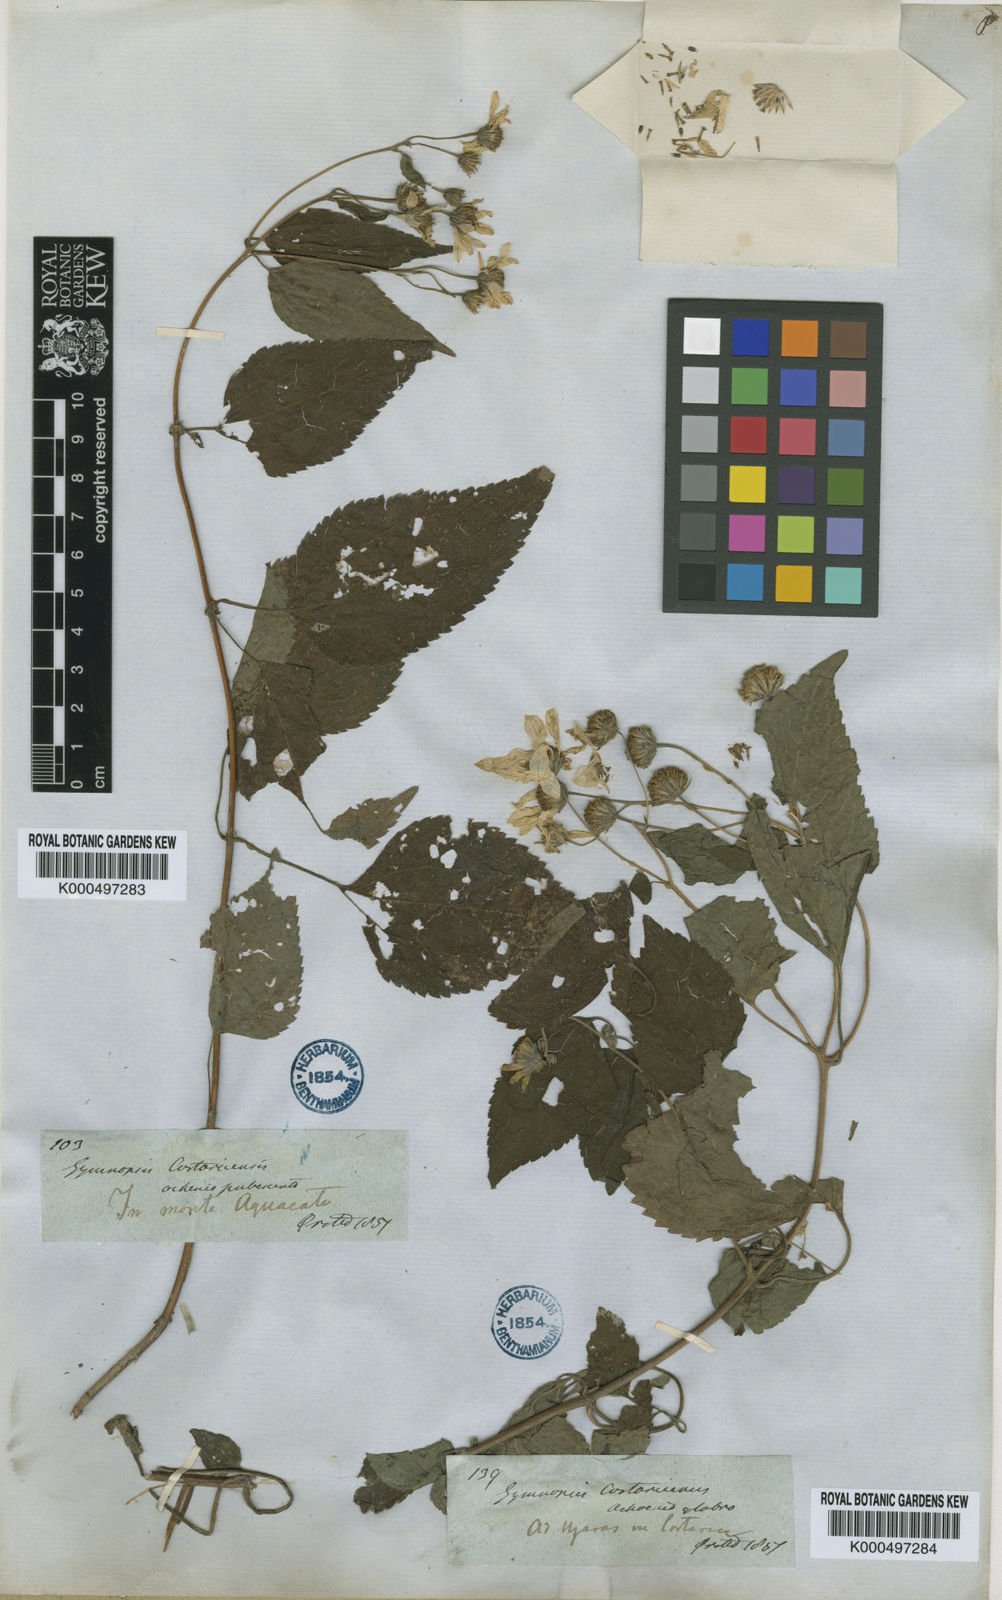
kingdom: Plantae
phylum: Tracheophyta
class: Magnoliopsida
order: Asterales
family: Asteraceae
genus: Hymenostephium
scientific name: Hymenostephium cordatum
